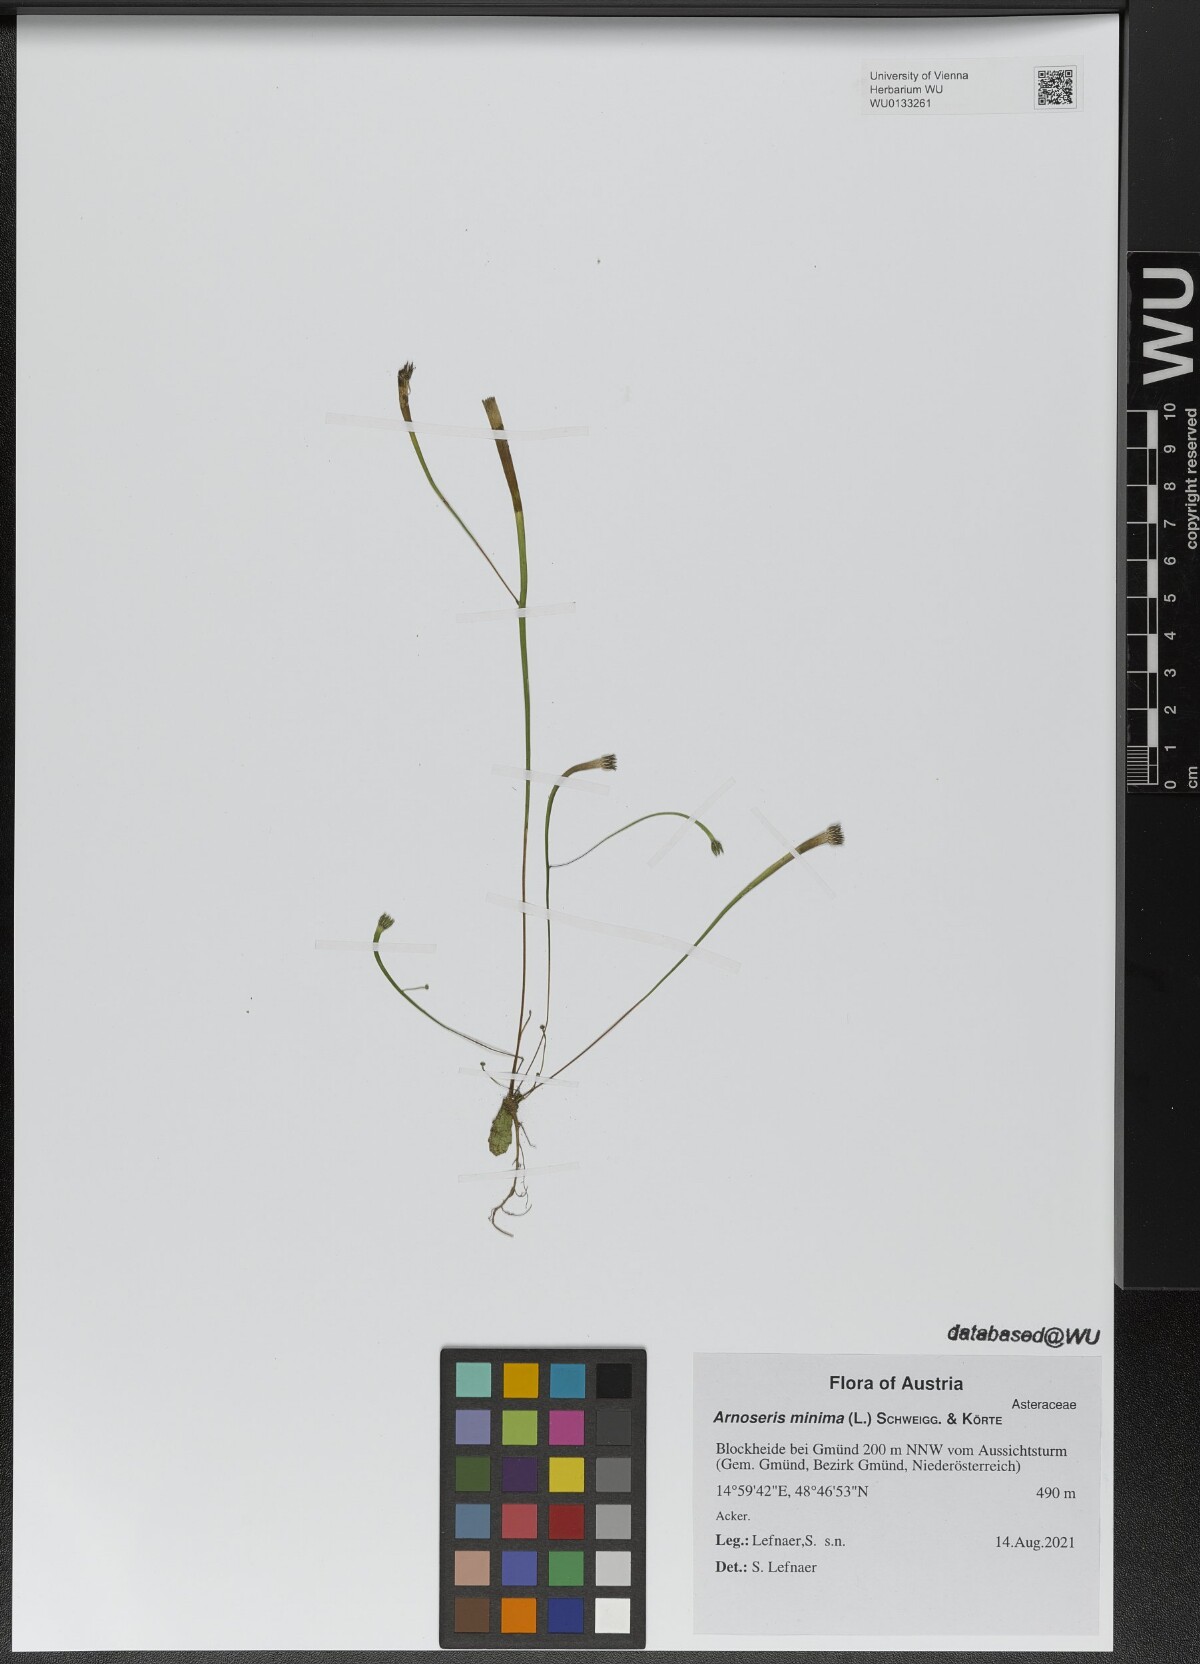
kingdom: Plantae
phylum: Tracheophyta
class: Magnoliopsida
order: Asterales
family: Asteraceae
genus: Arnoseris
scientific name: Arnoseris minima
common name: Lamb's succory
